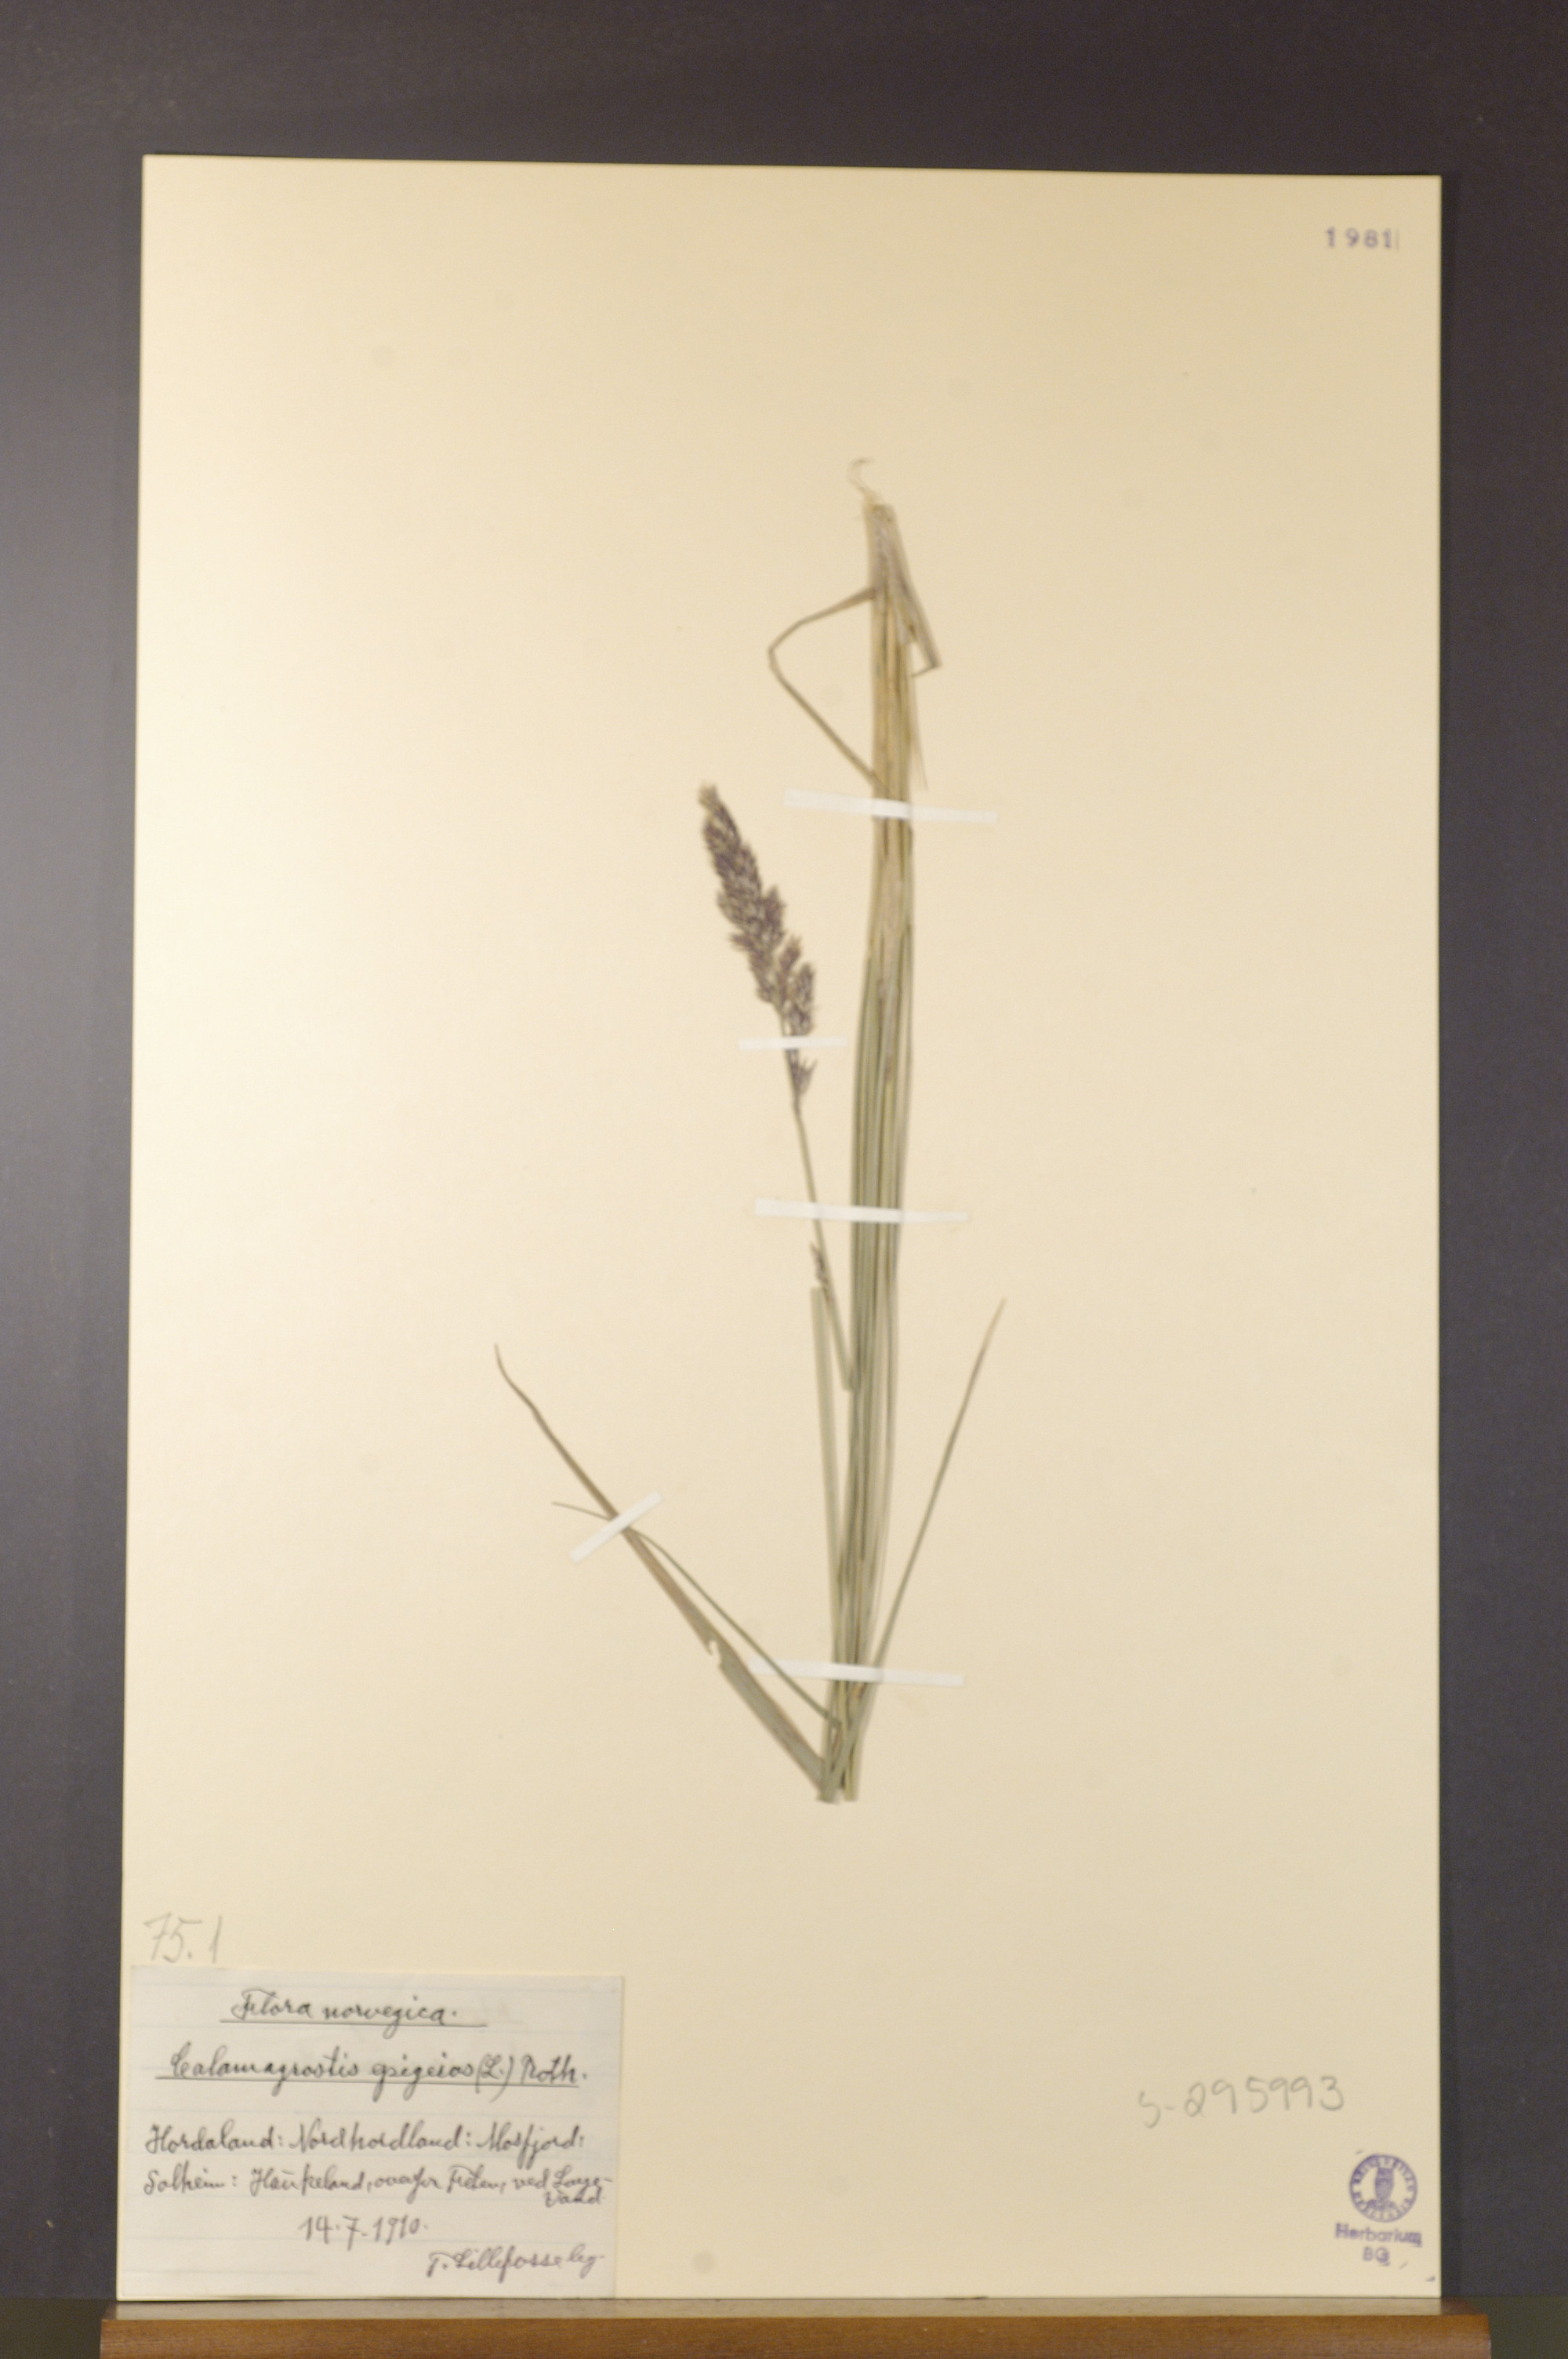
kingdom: Plantae
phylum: Tracheophyta
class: Liliopsida
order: Poales
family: Poaceae
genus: Calamagrostis
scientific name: Calamagrostis epigejos
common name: Wood small-reed
